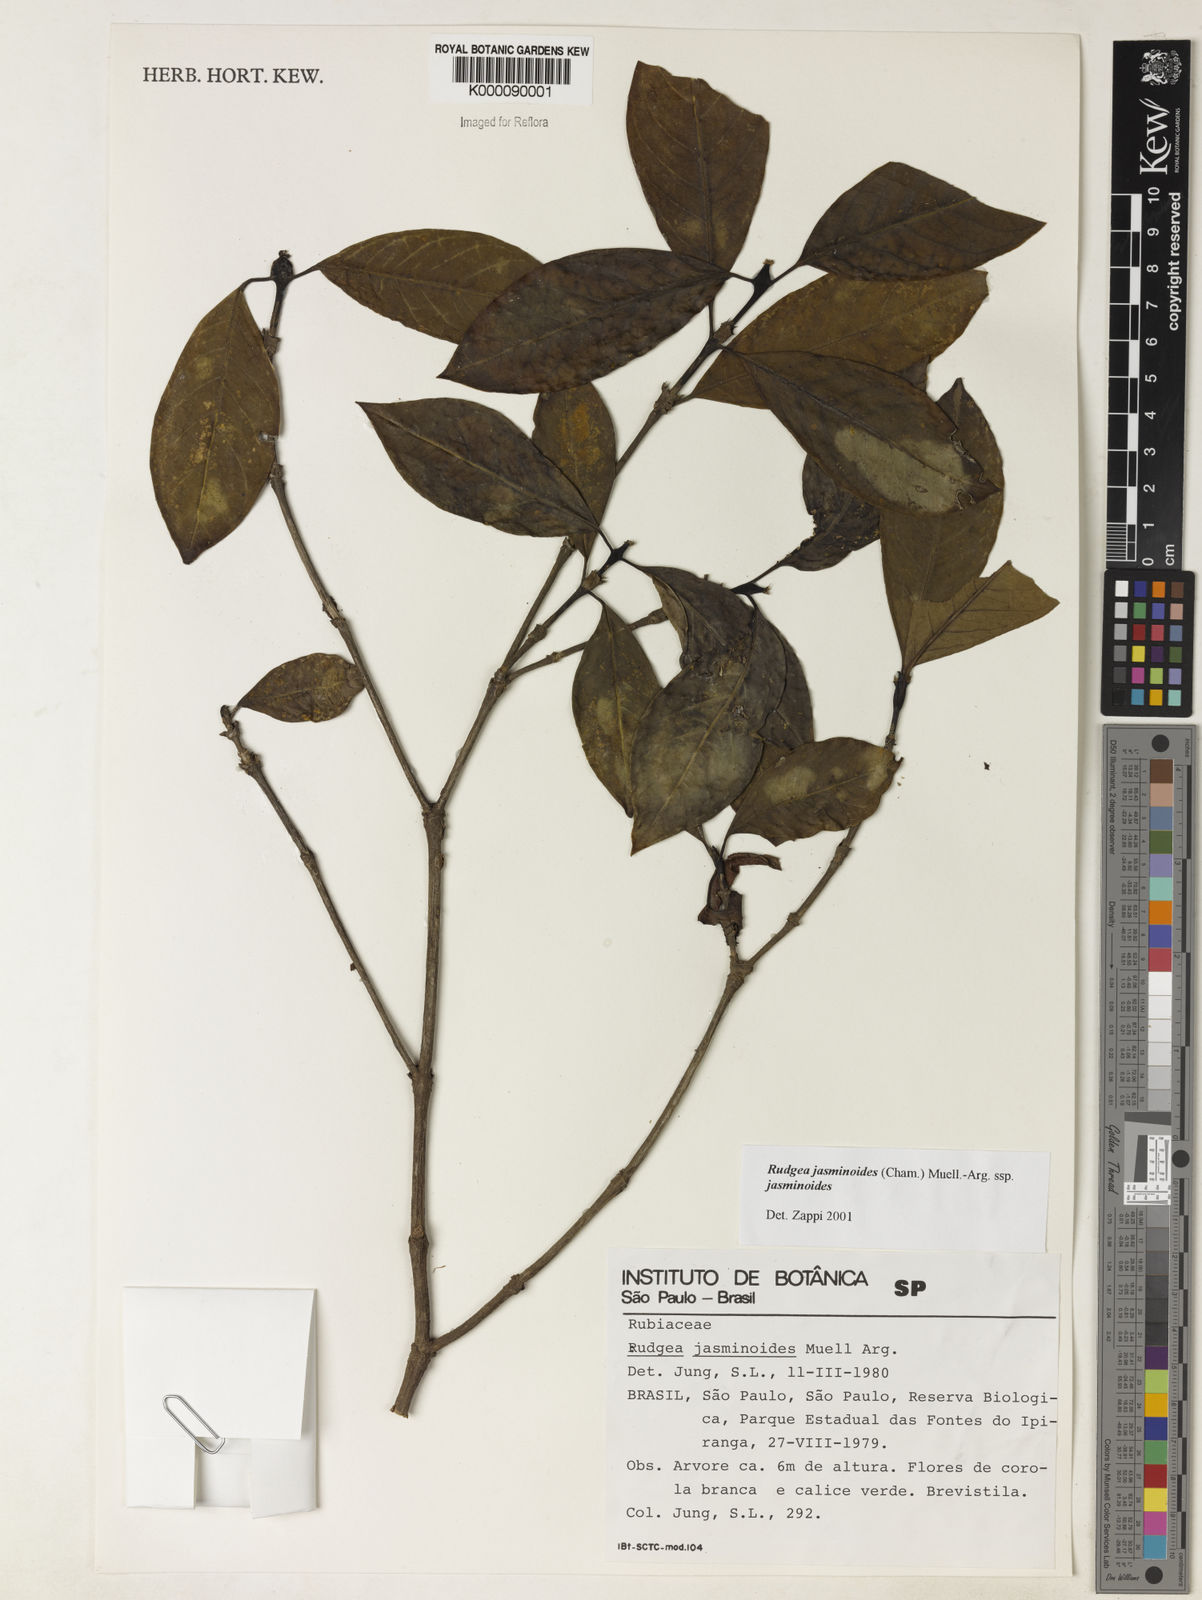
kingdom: Plantae
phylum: Tracheophyta
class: Magnoliopsida
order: Gentianales
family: Rubiaceae
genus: Rudgea
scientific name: Rudgea jasminoides
